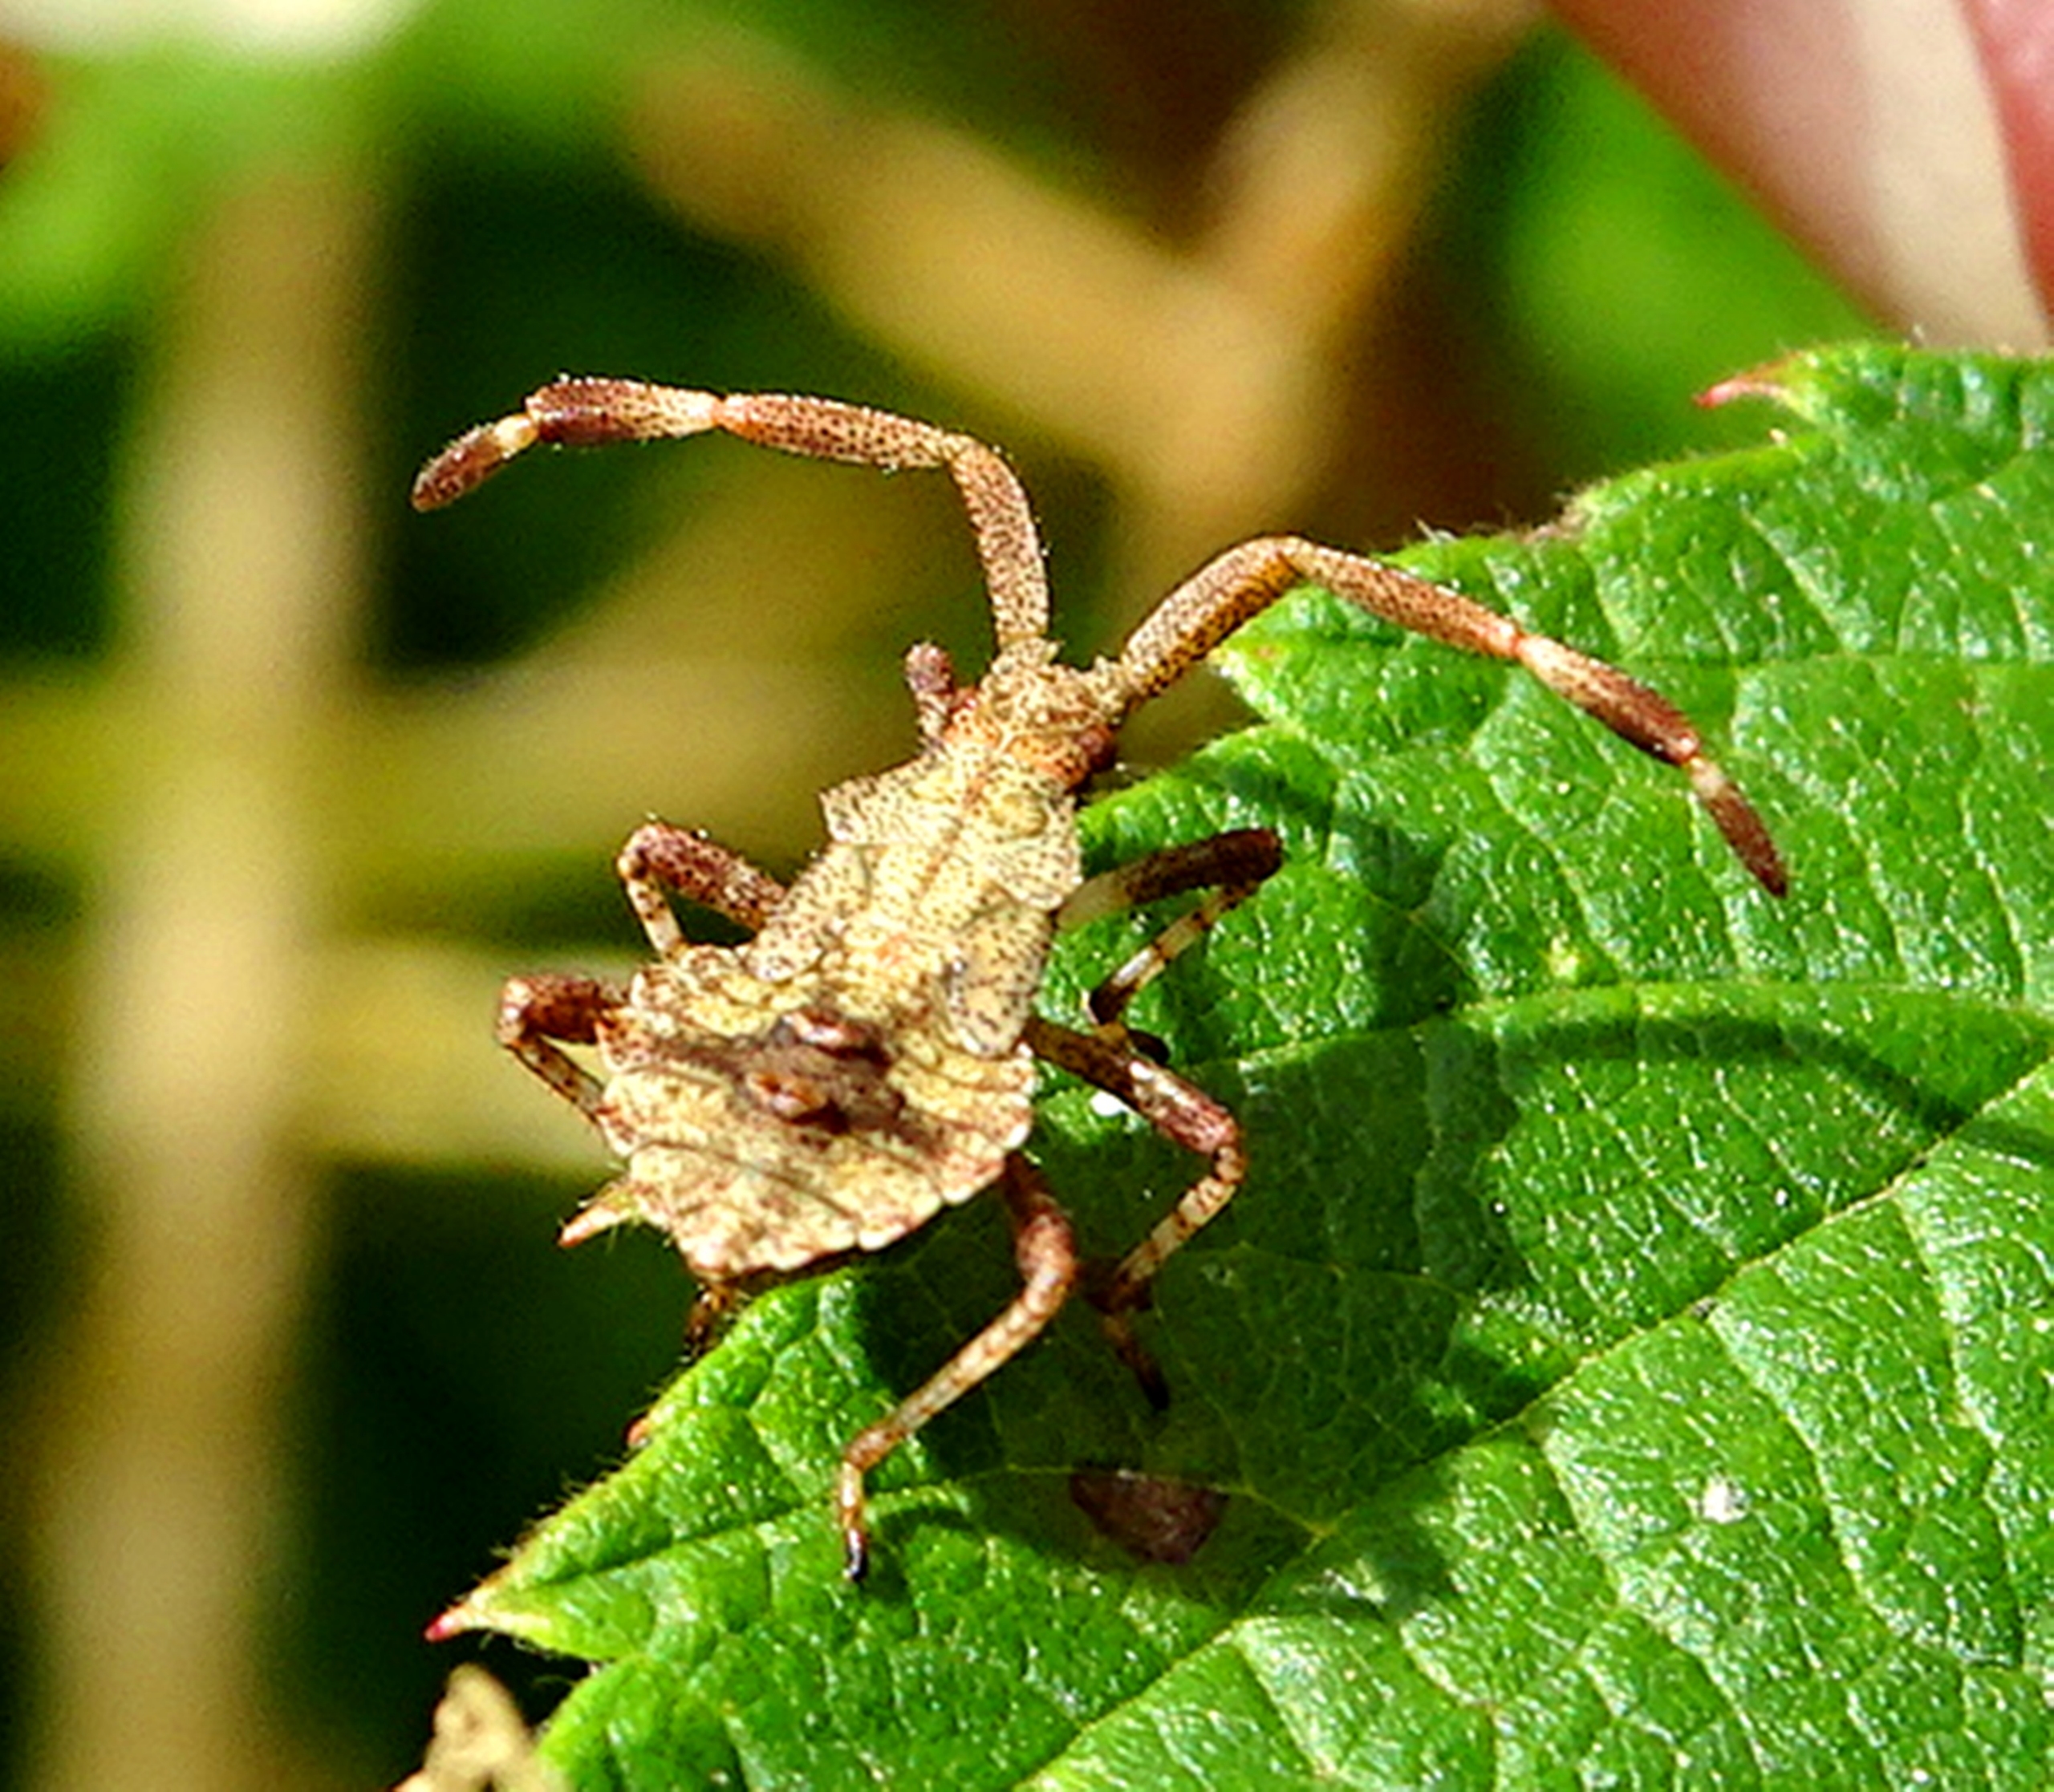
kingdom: Animalia
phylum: Arthropoda
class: Insecta
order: Hemiptera
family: Coreidae
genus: Coreus
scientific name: Coreus marginatus
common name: Skræppetæge
